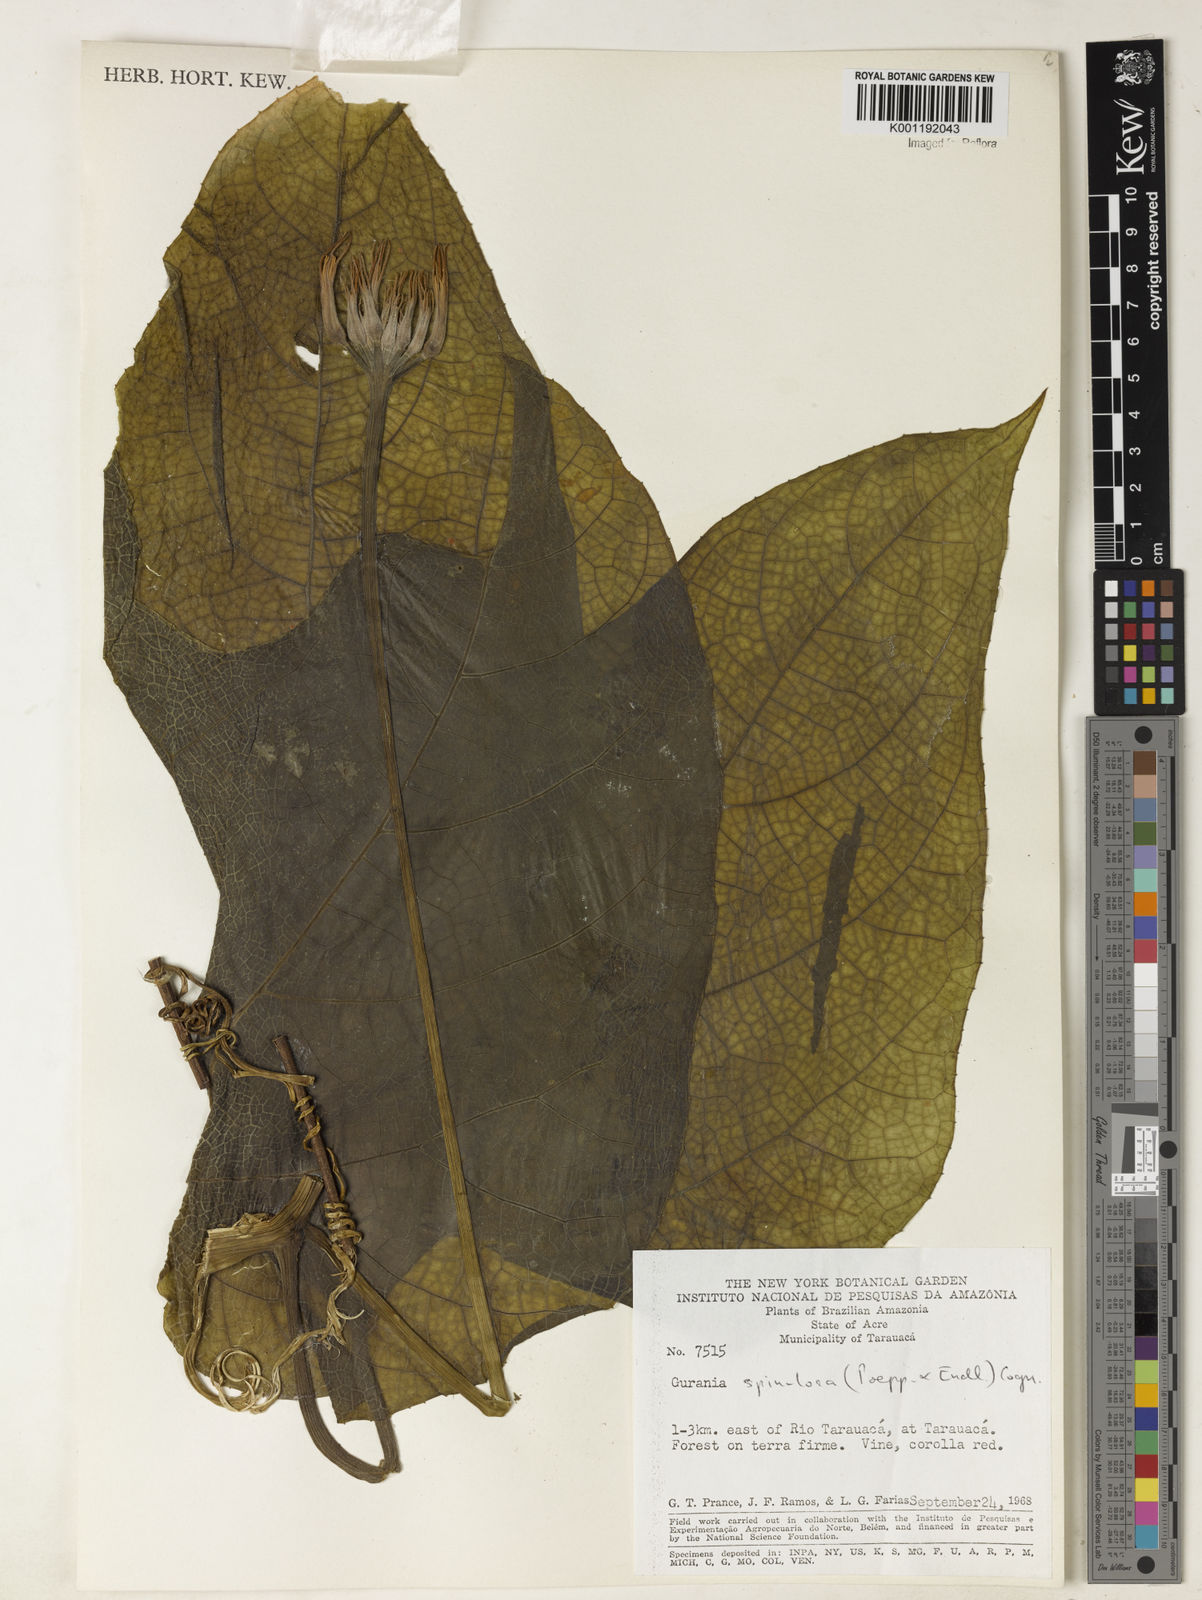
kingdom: Plantae
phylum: Tracheophyta
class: Magnoliopsida
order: Cucurbitales
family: Cucurbitaceae
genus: Gurania
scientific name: Gurania lobata
